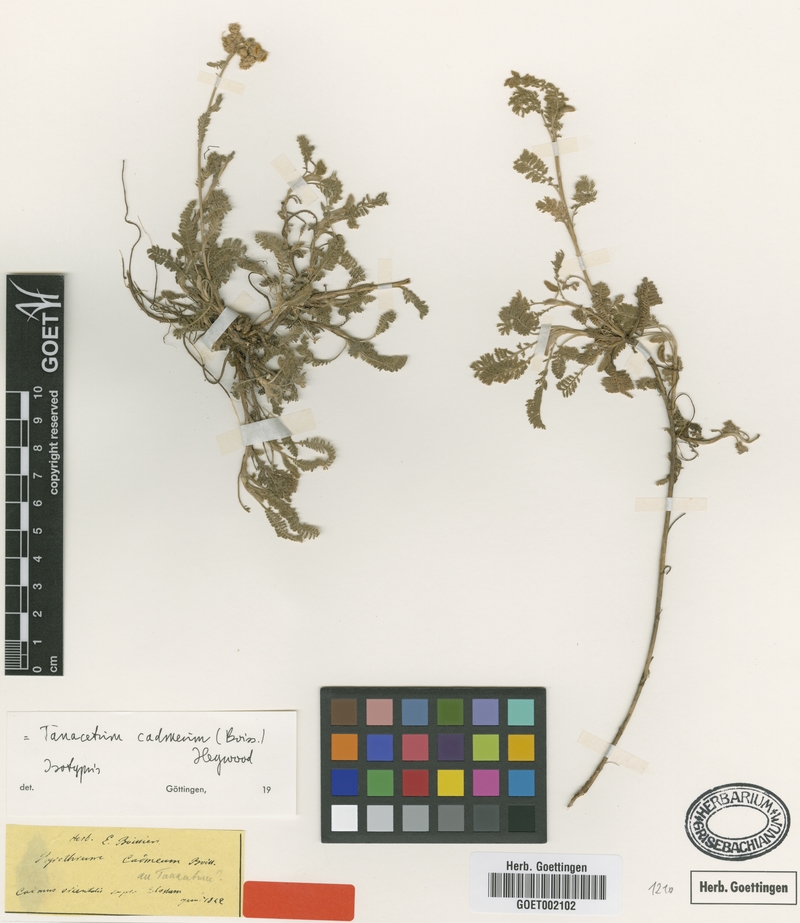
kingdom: Plantae
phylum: Tracheophyta
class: Magnoliopsida
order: Asterales
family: Asteraceae
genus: Tanacetum
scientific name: Tanacetum cadmeum
